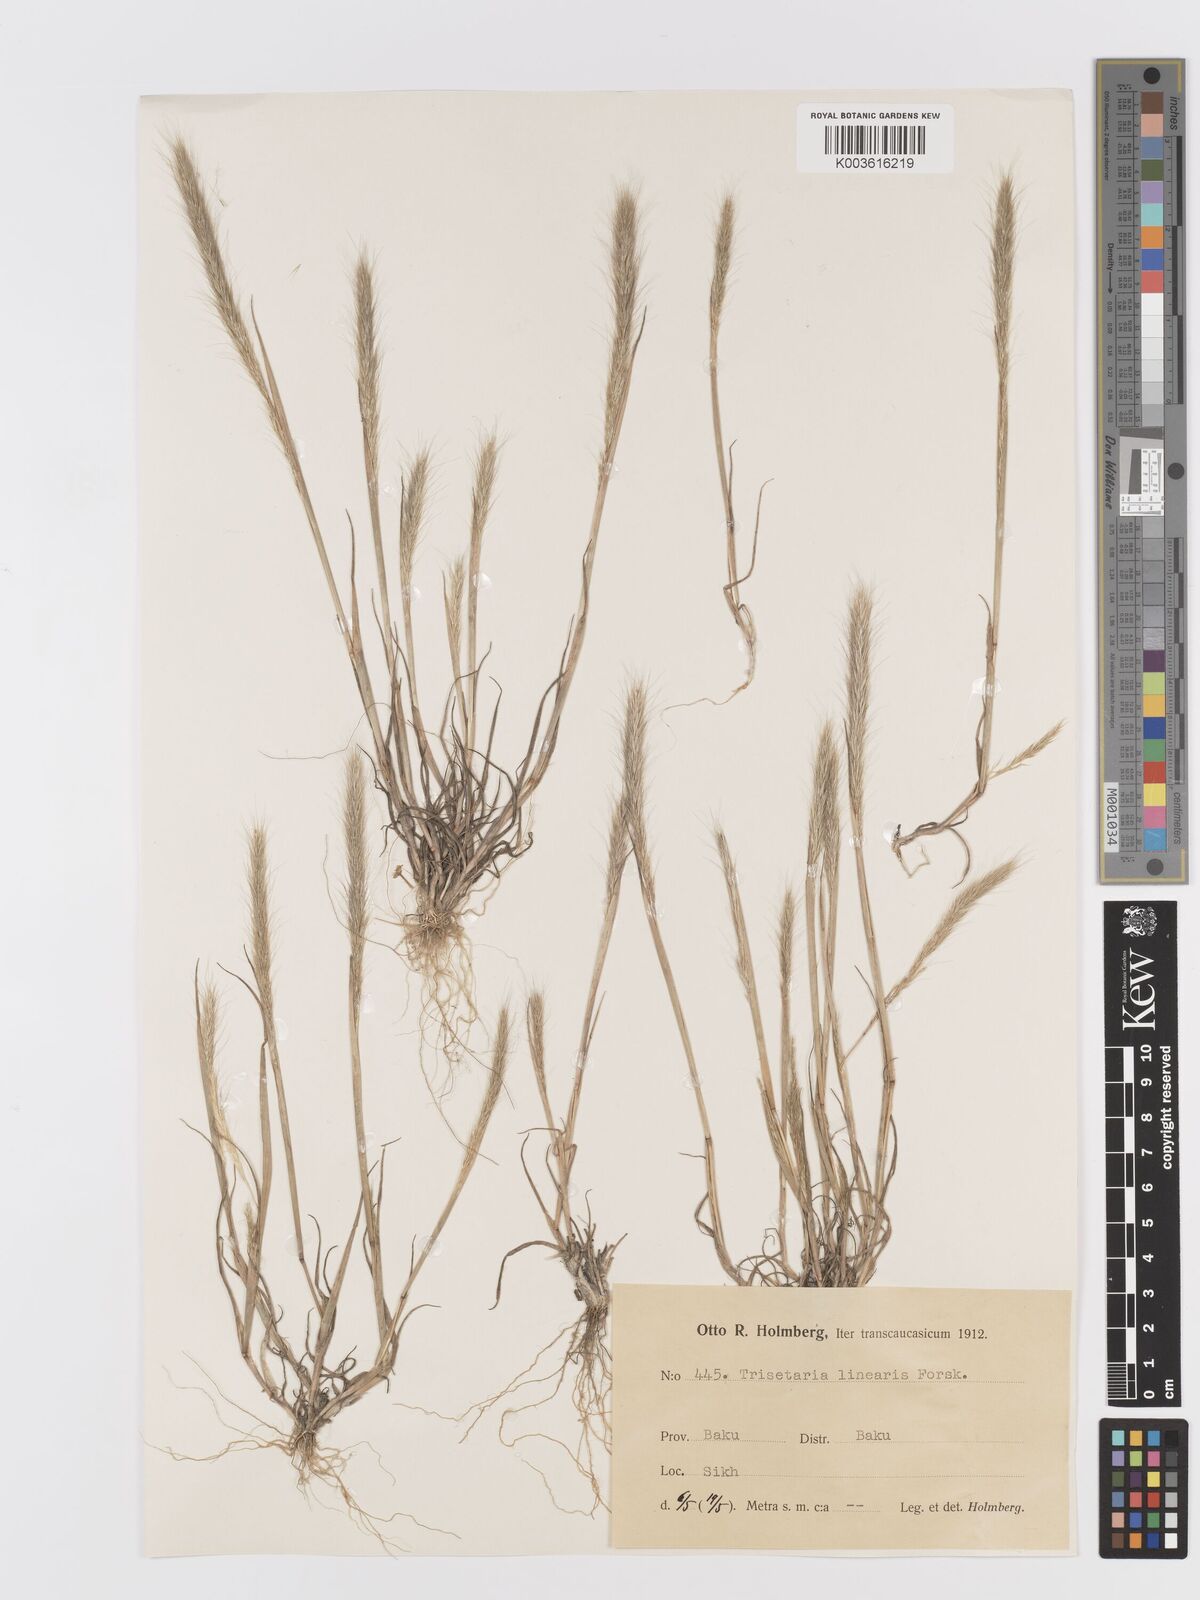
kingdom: Plantae
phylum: Tracheophyta
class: Liliopsida
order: Poales
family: Poaceae
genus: Trisetaria
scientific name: Trisetaria linearis
